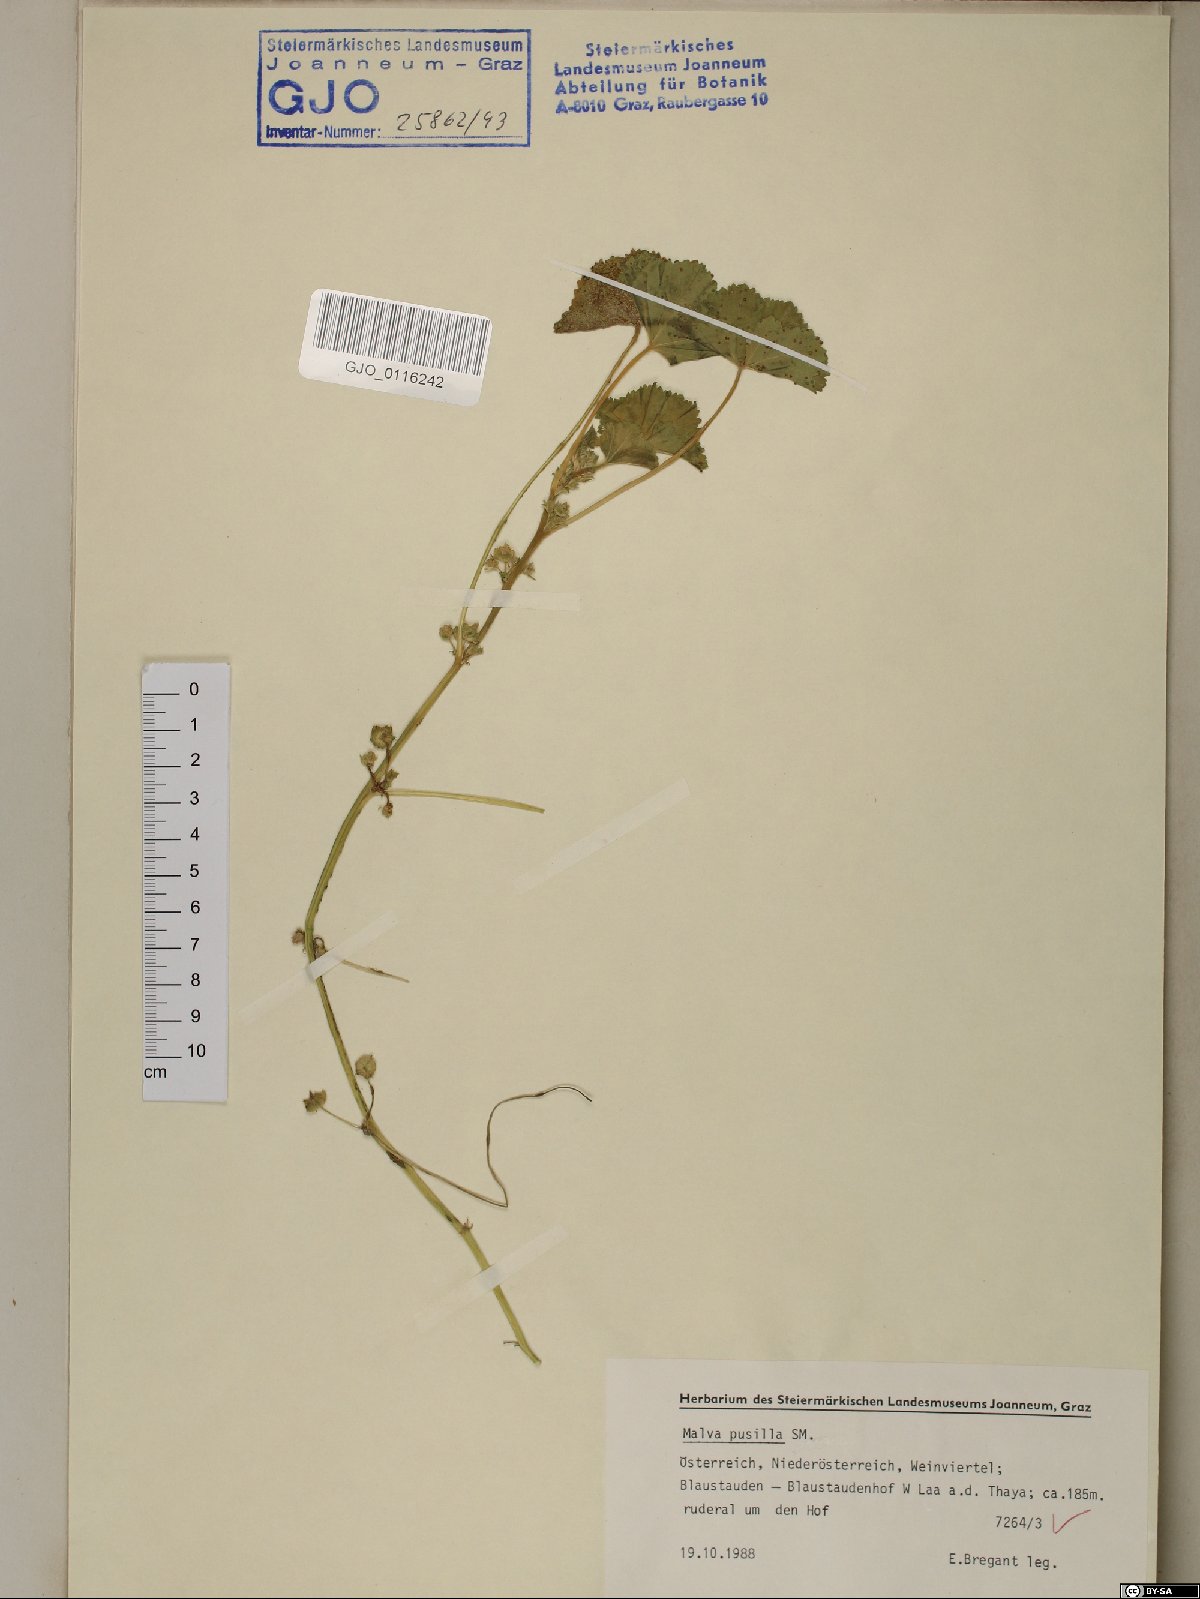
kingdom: Plantae
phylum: Tracheophyta
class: Magnoliopsida
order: Malvales
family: Malvaceae
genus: Malva
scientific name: Malva pusilla
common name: Small mallow
